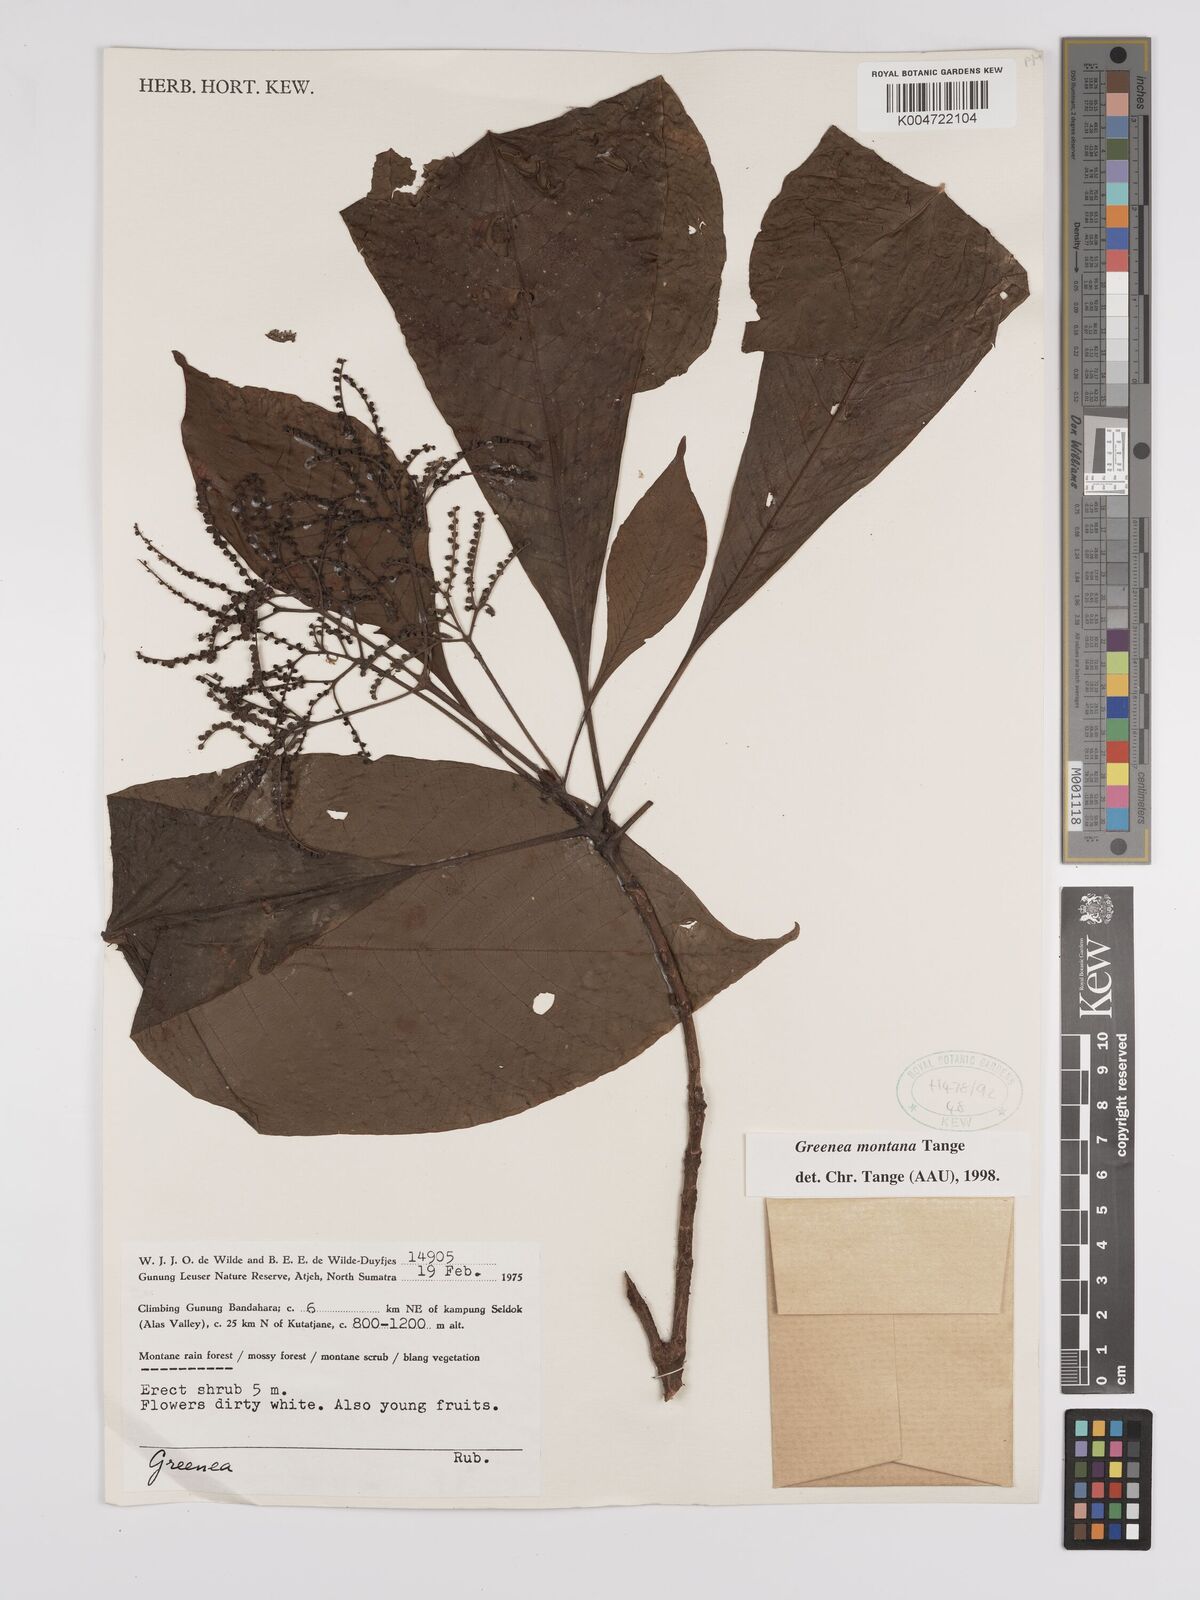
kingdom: Plantae
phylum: Tracheophyta
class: Magnoliopsida
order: Gentianales
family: Rubiaceae
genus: Greenea
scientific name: Greenea montana
